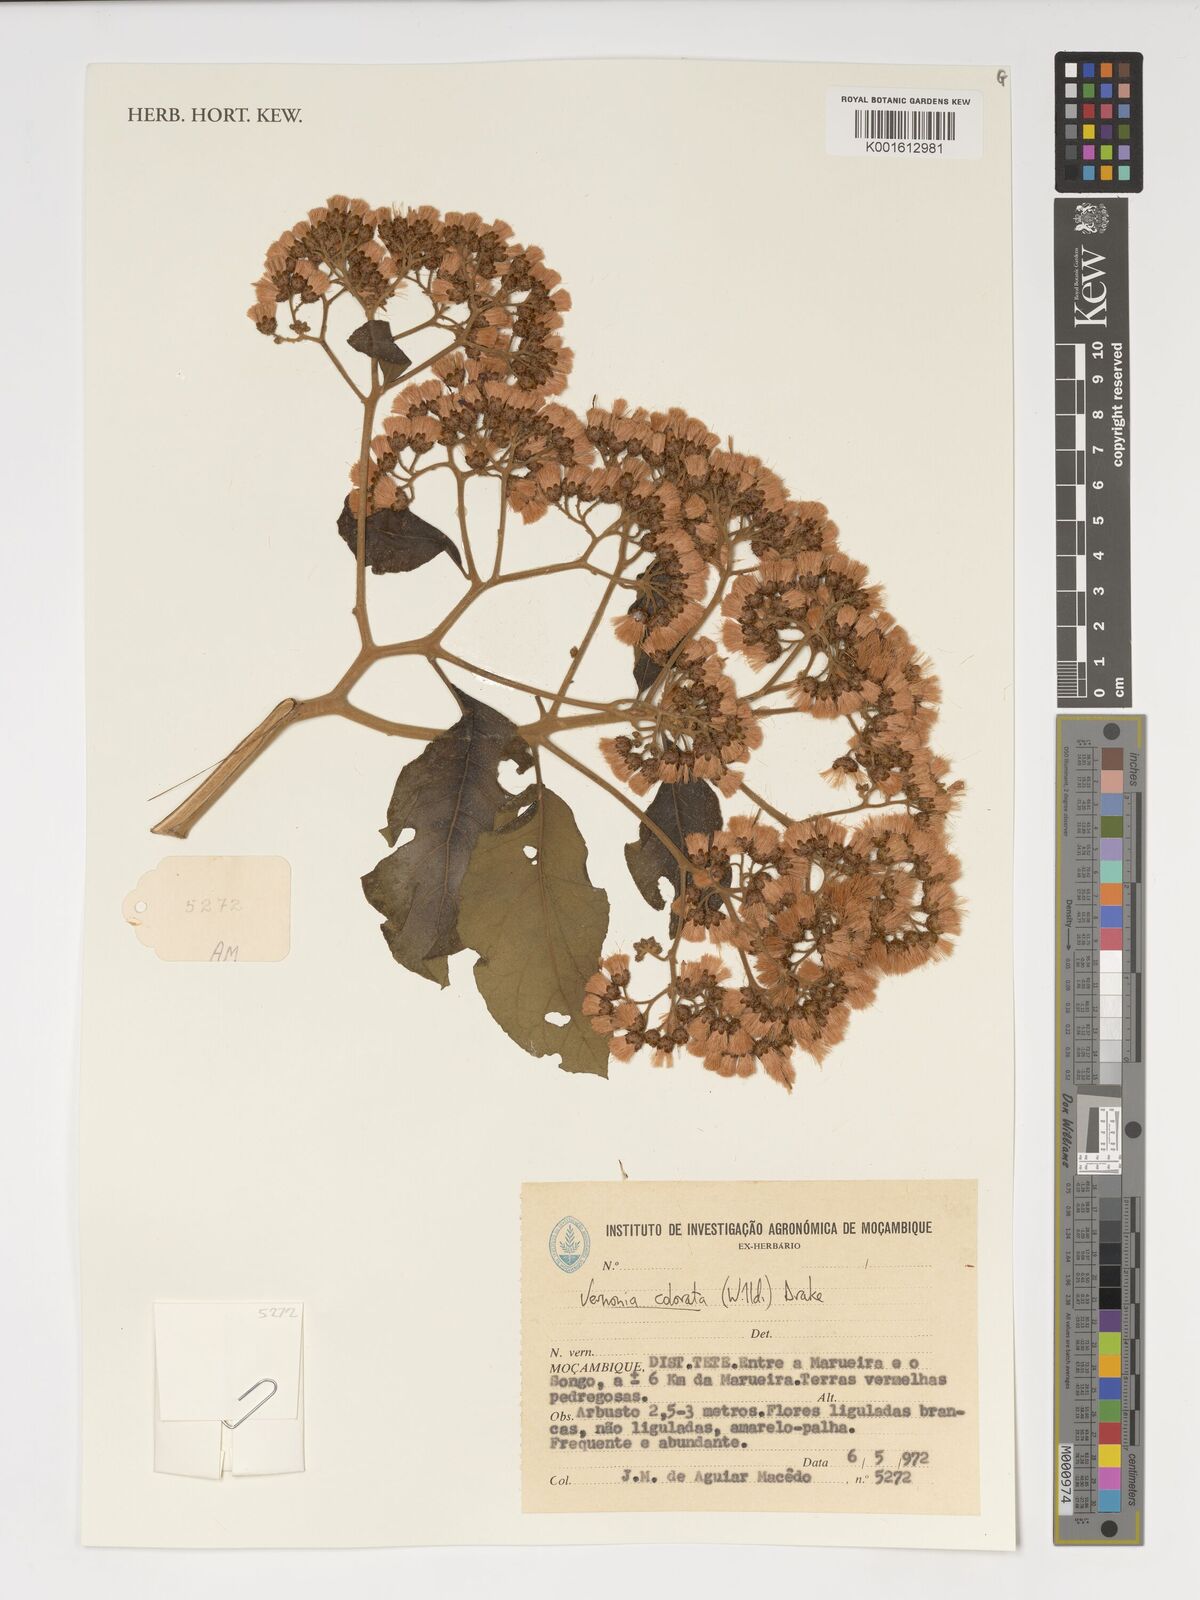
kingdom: Plantae
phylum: Tracheophyta
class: Magnoliopsida
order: Asterales
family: Asteraceae
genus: Vernonia
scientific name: Vernonia colorata
